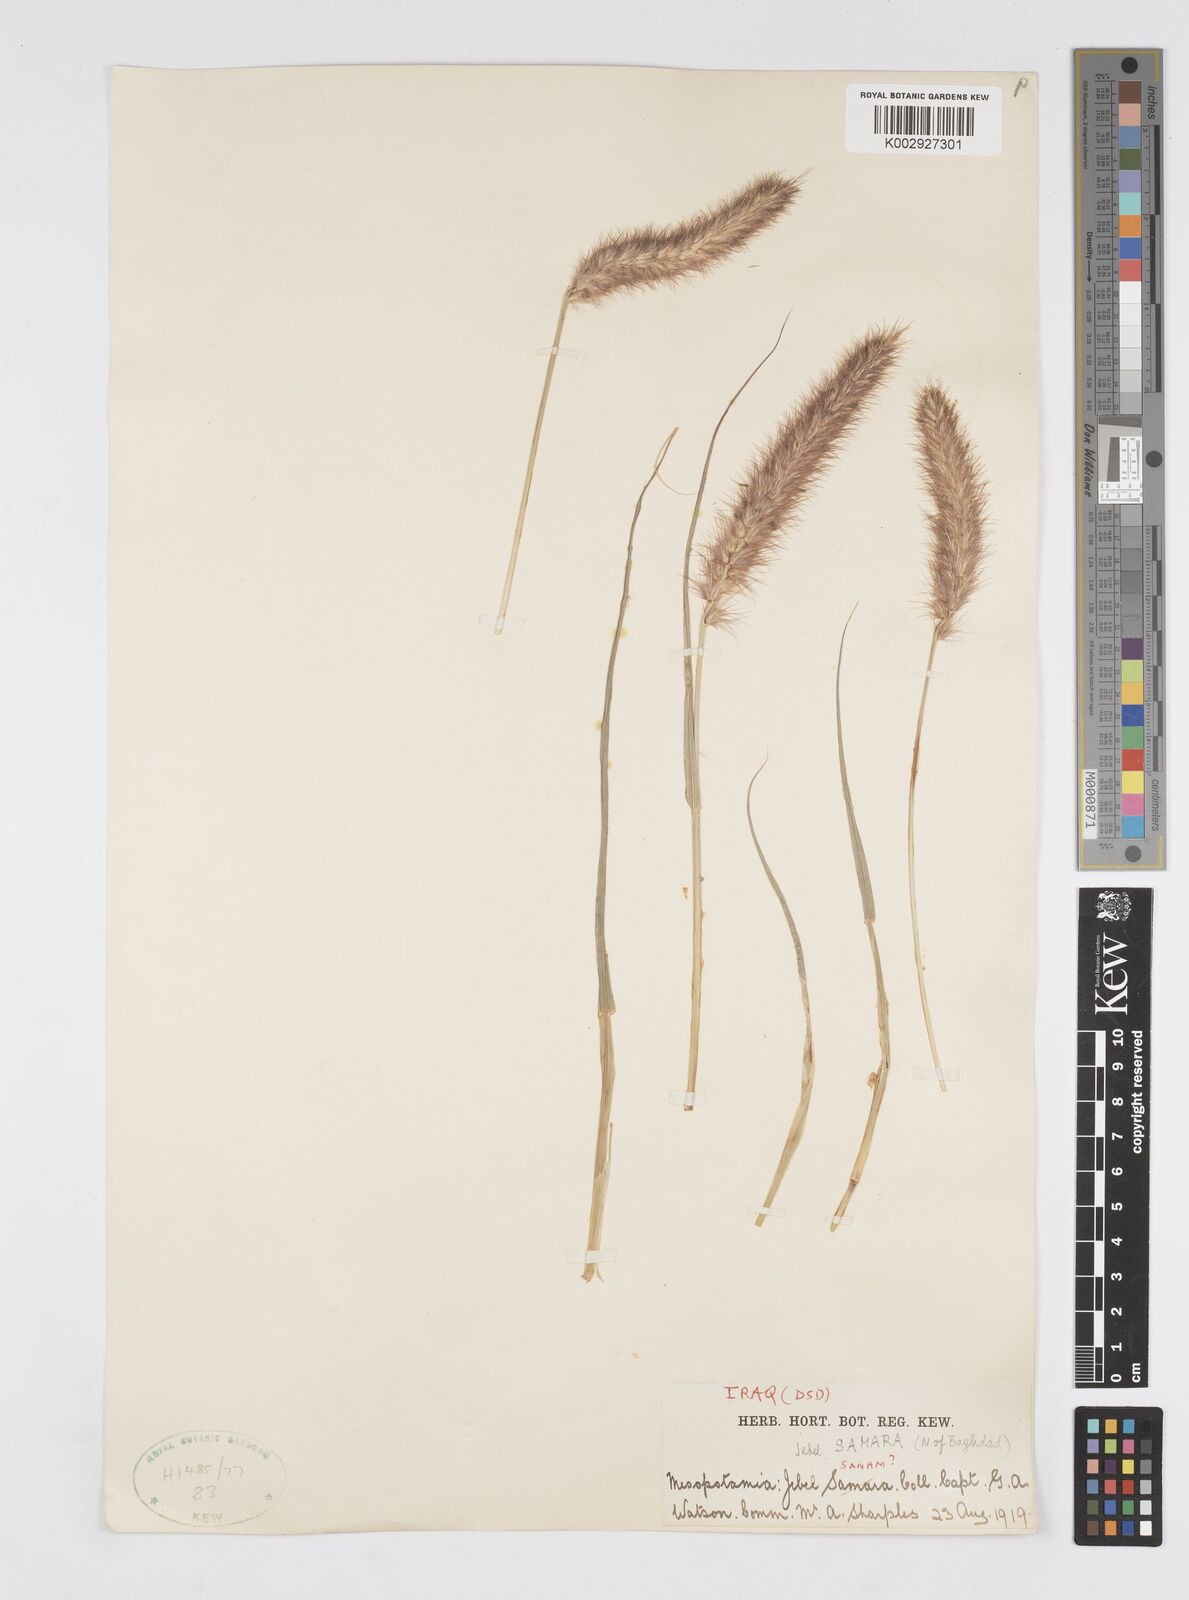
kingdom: Plantae
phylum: Tracheophyta
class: Liliopsida
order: Poales
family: Poaceae
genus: Cenchrus
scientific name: Cenchrus ciliaris
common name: Buffelgrass
